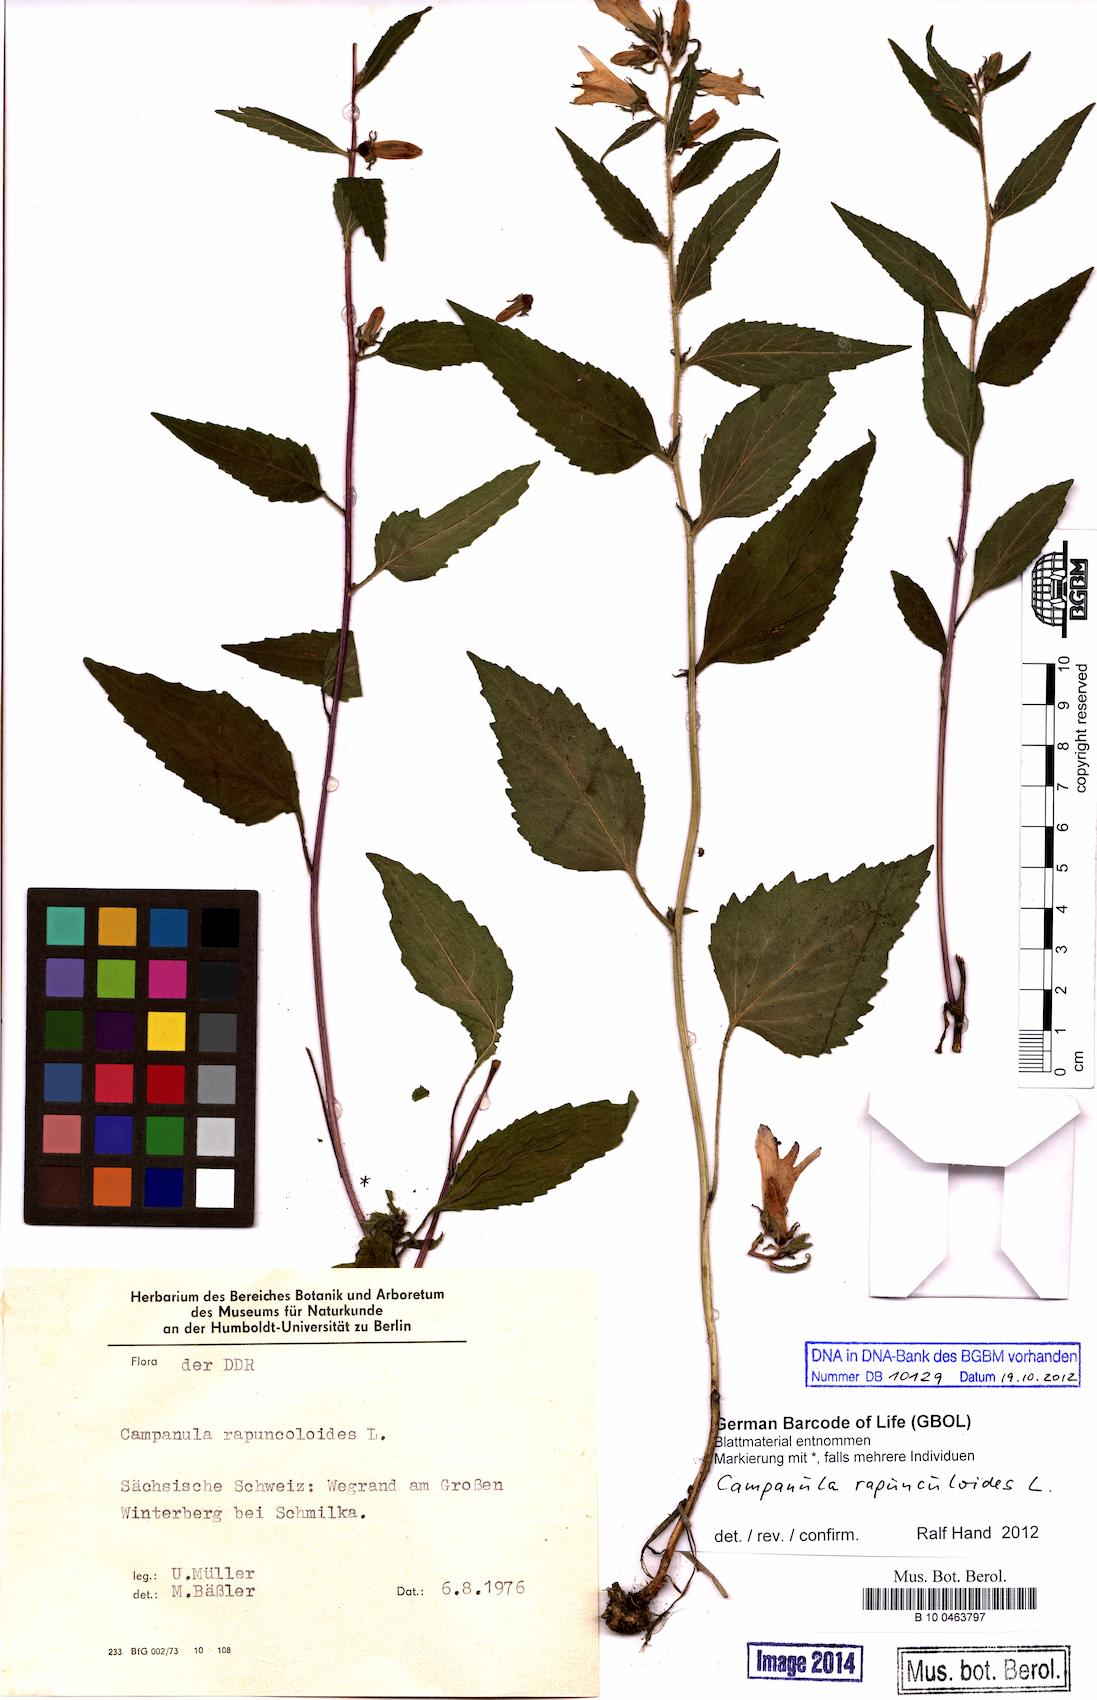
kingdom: Plantae
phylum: Tracheophyta
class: Magnoliopsida
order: Asterales
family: Campanulaceae
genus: Campanula
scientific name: Campanula rapunculoides
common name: Creeping bellflower
